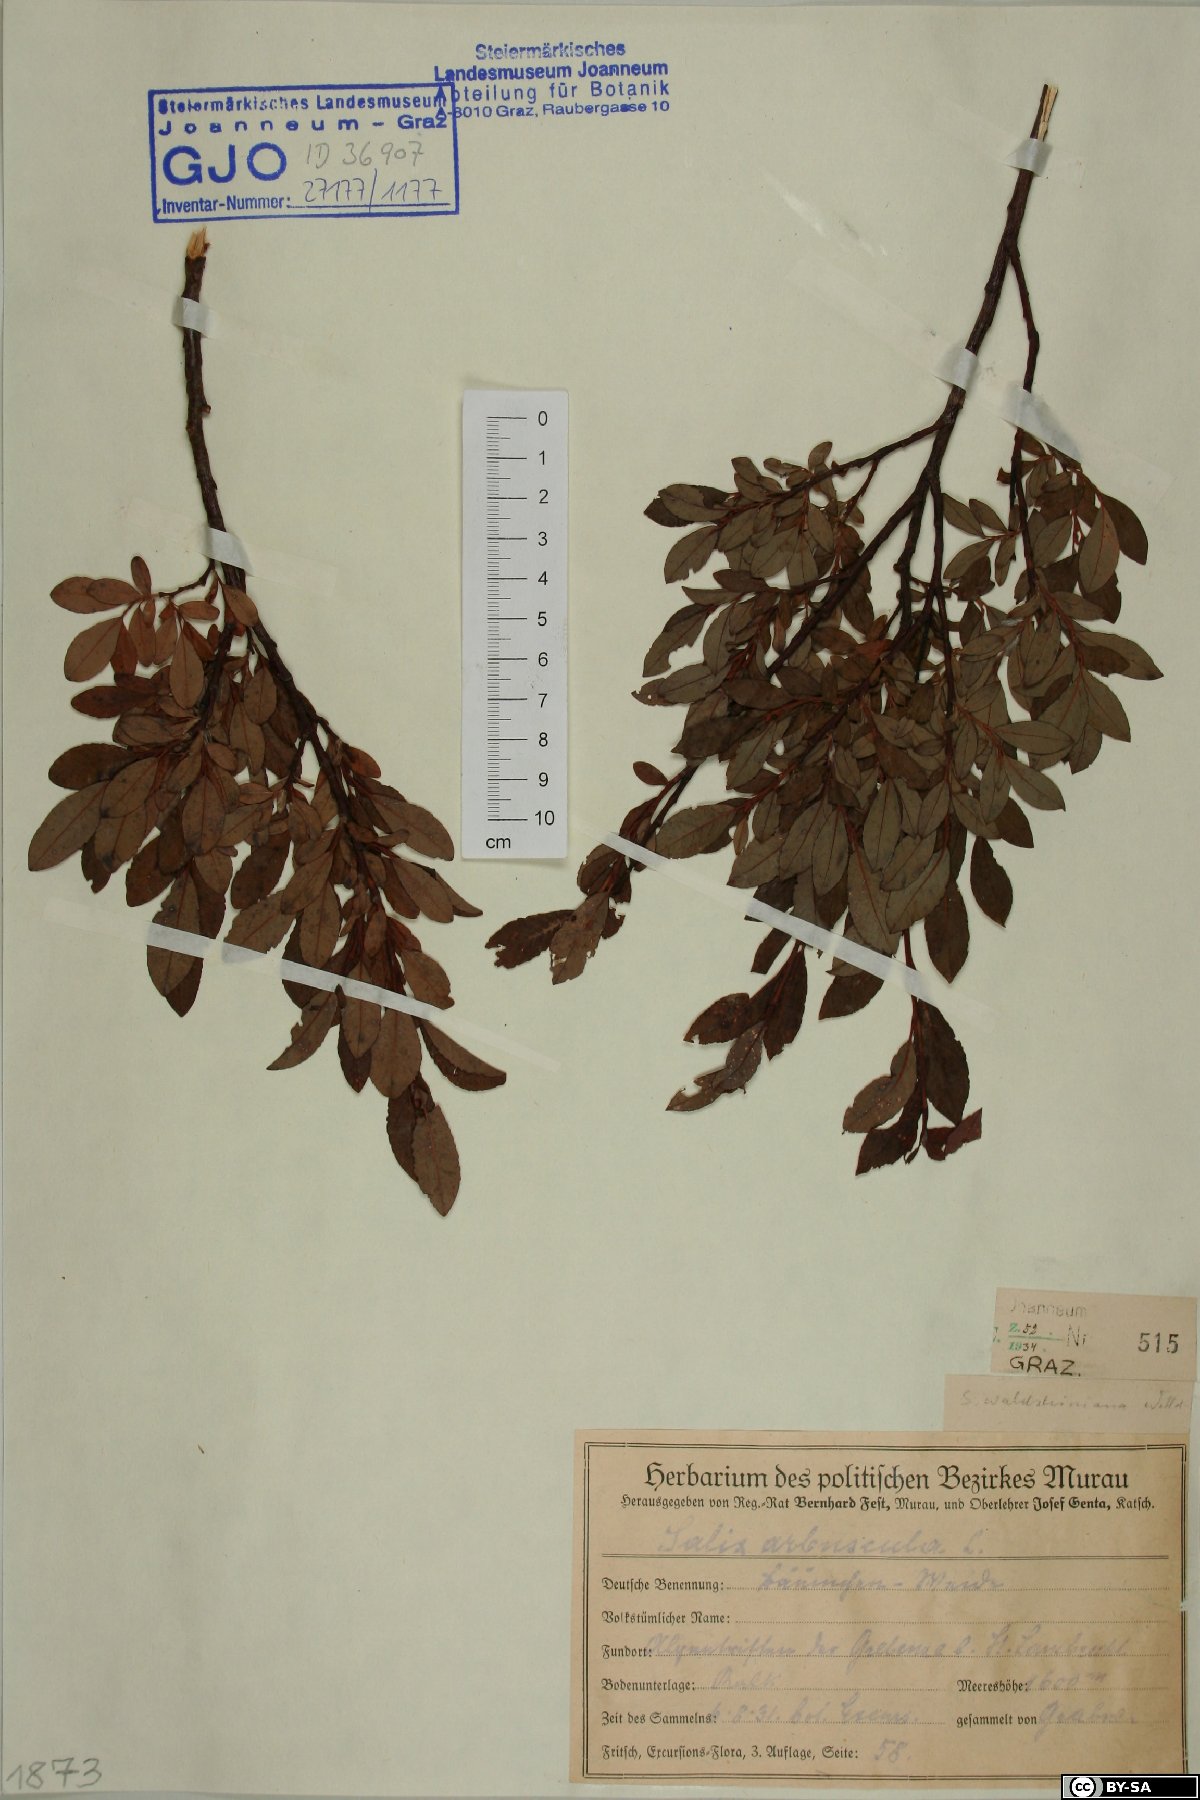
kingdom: Plantae
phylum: Tracheophyta
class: Magnoliopsida
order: Malpighiales
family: Salicaceae
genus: Salix
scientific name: Salix waldsteiniana
